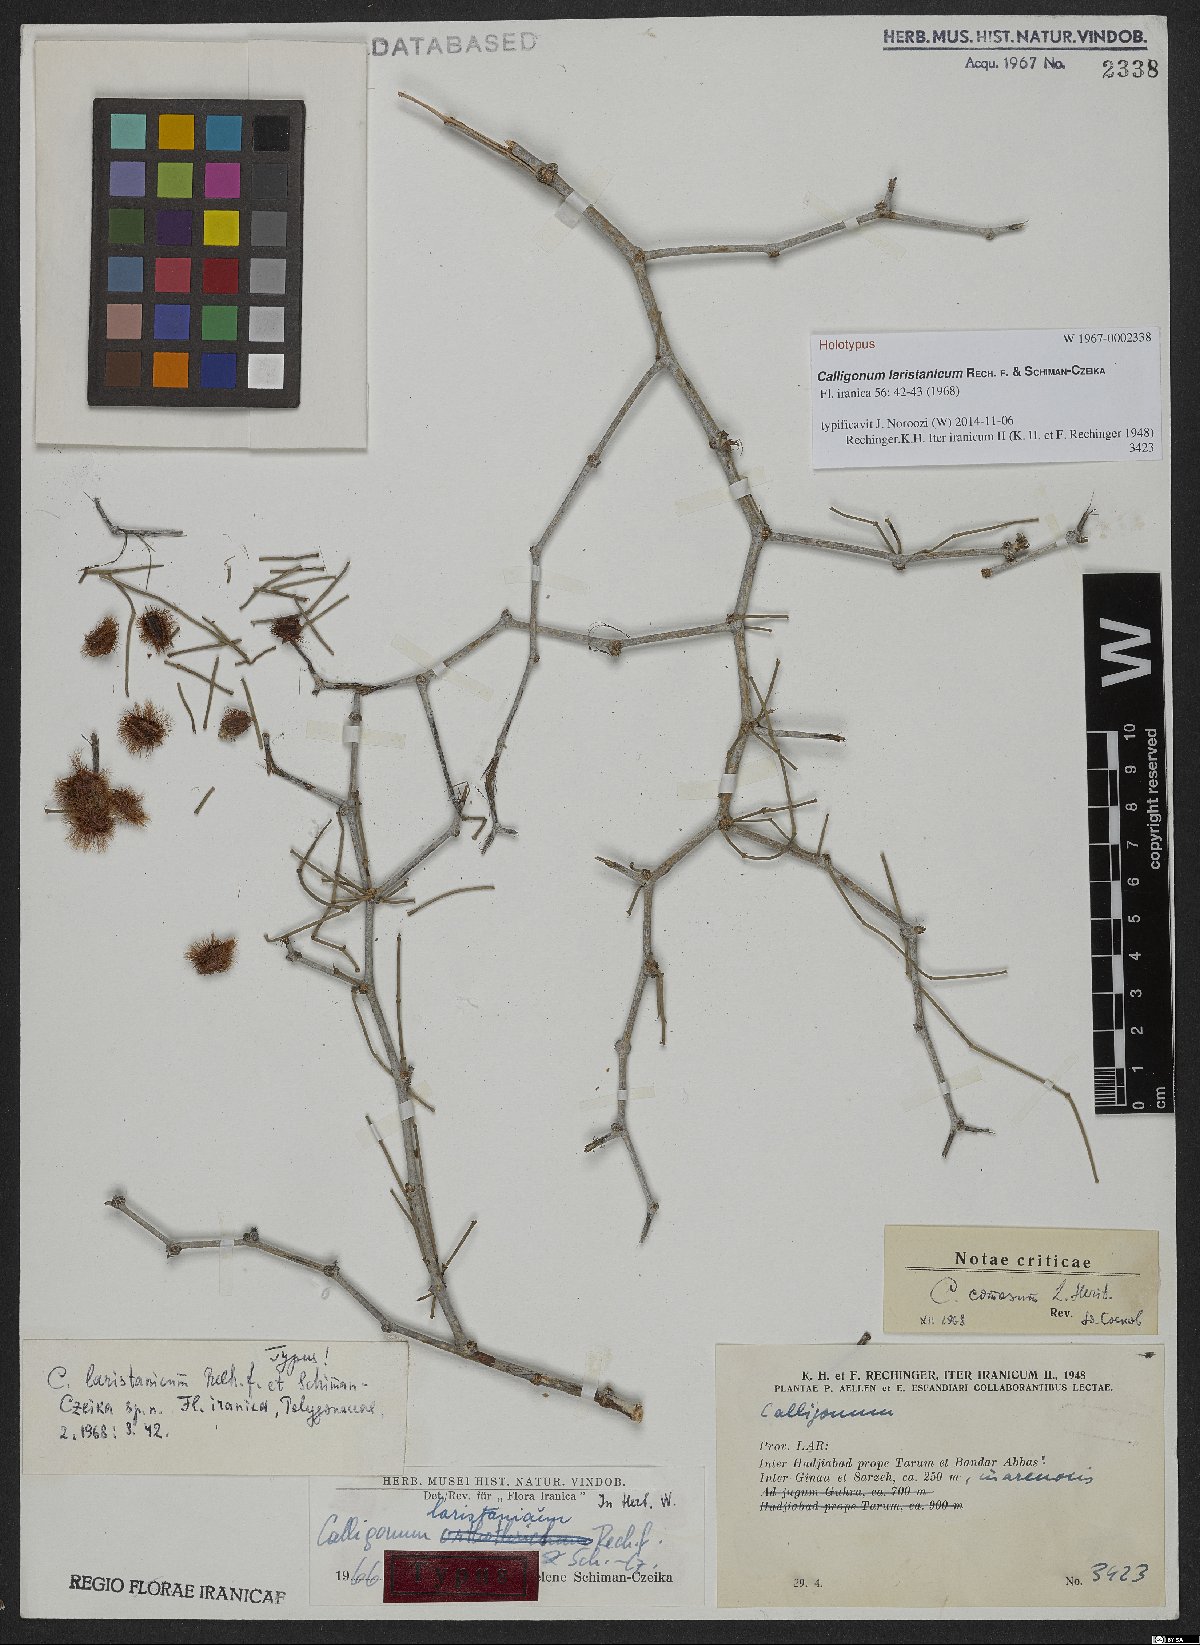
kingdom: Plantae
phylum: Tracheophyta
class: Magnoliopsida
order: Caryophyllales
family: Polygonaceae
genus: Calligonum
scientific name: Calligonum laristanicum
